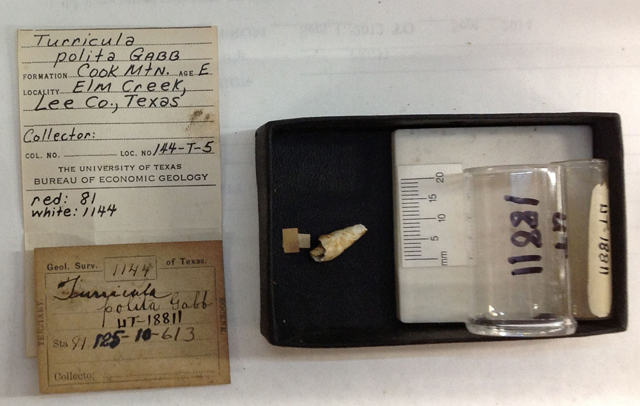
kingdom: Animalia
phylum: Mollusca
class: Gastropoda
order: Neogastropoda
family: Clavatulidae
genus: Turricula
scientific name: Turricula pollii
